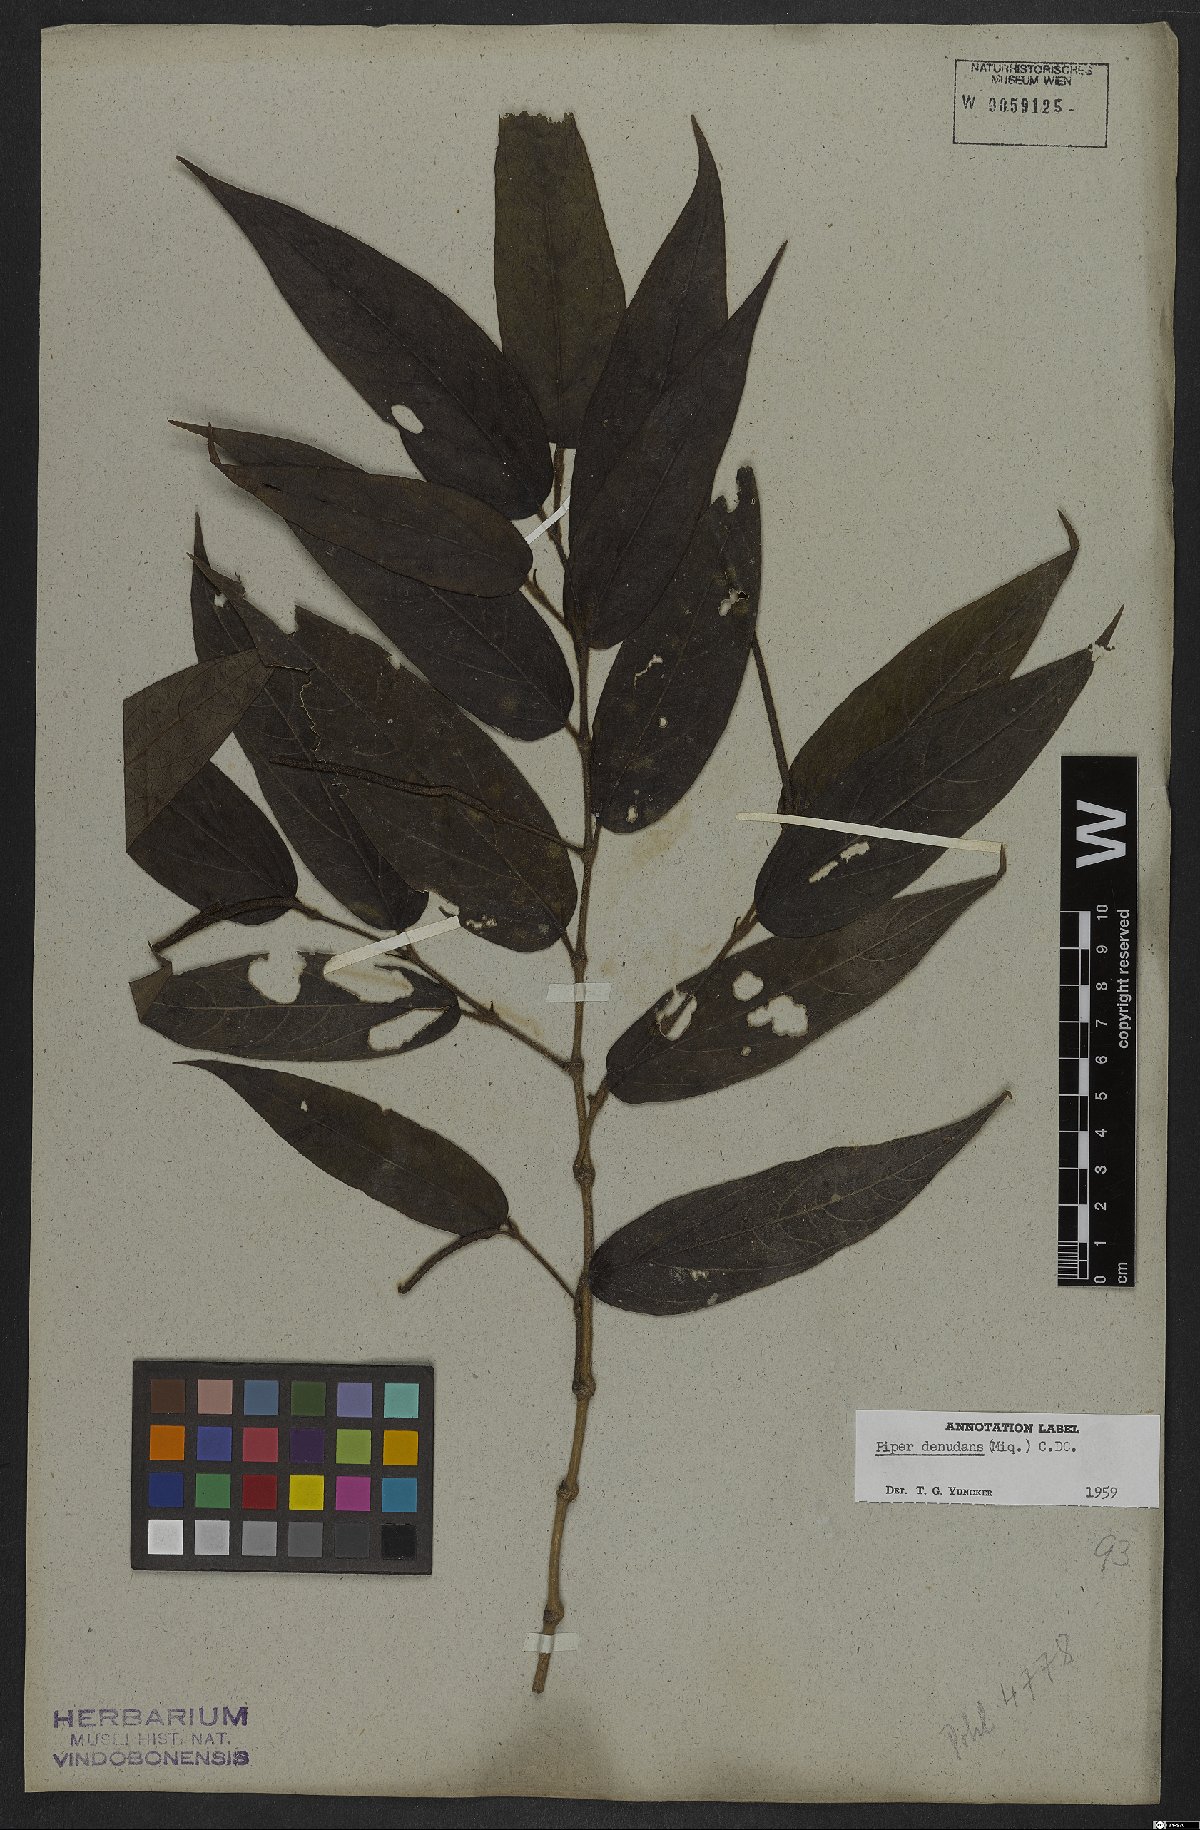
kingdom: Plantae
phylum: Tracheophyta
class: Magnoliopsida
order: Piperales
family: Piperaceae
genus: Piper
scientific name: Piper lepturum
